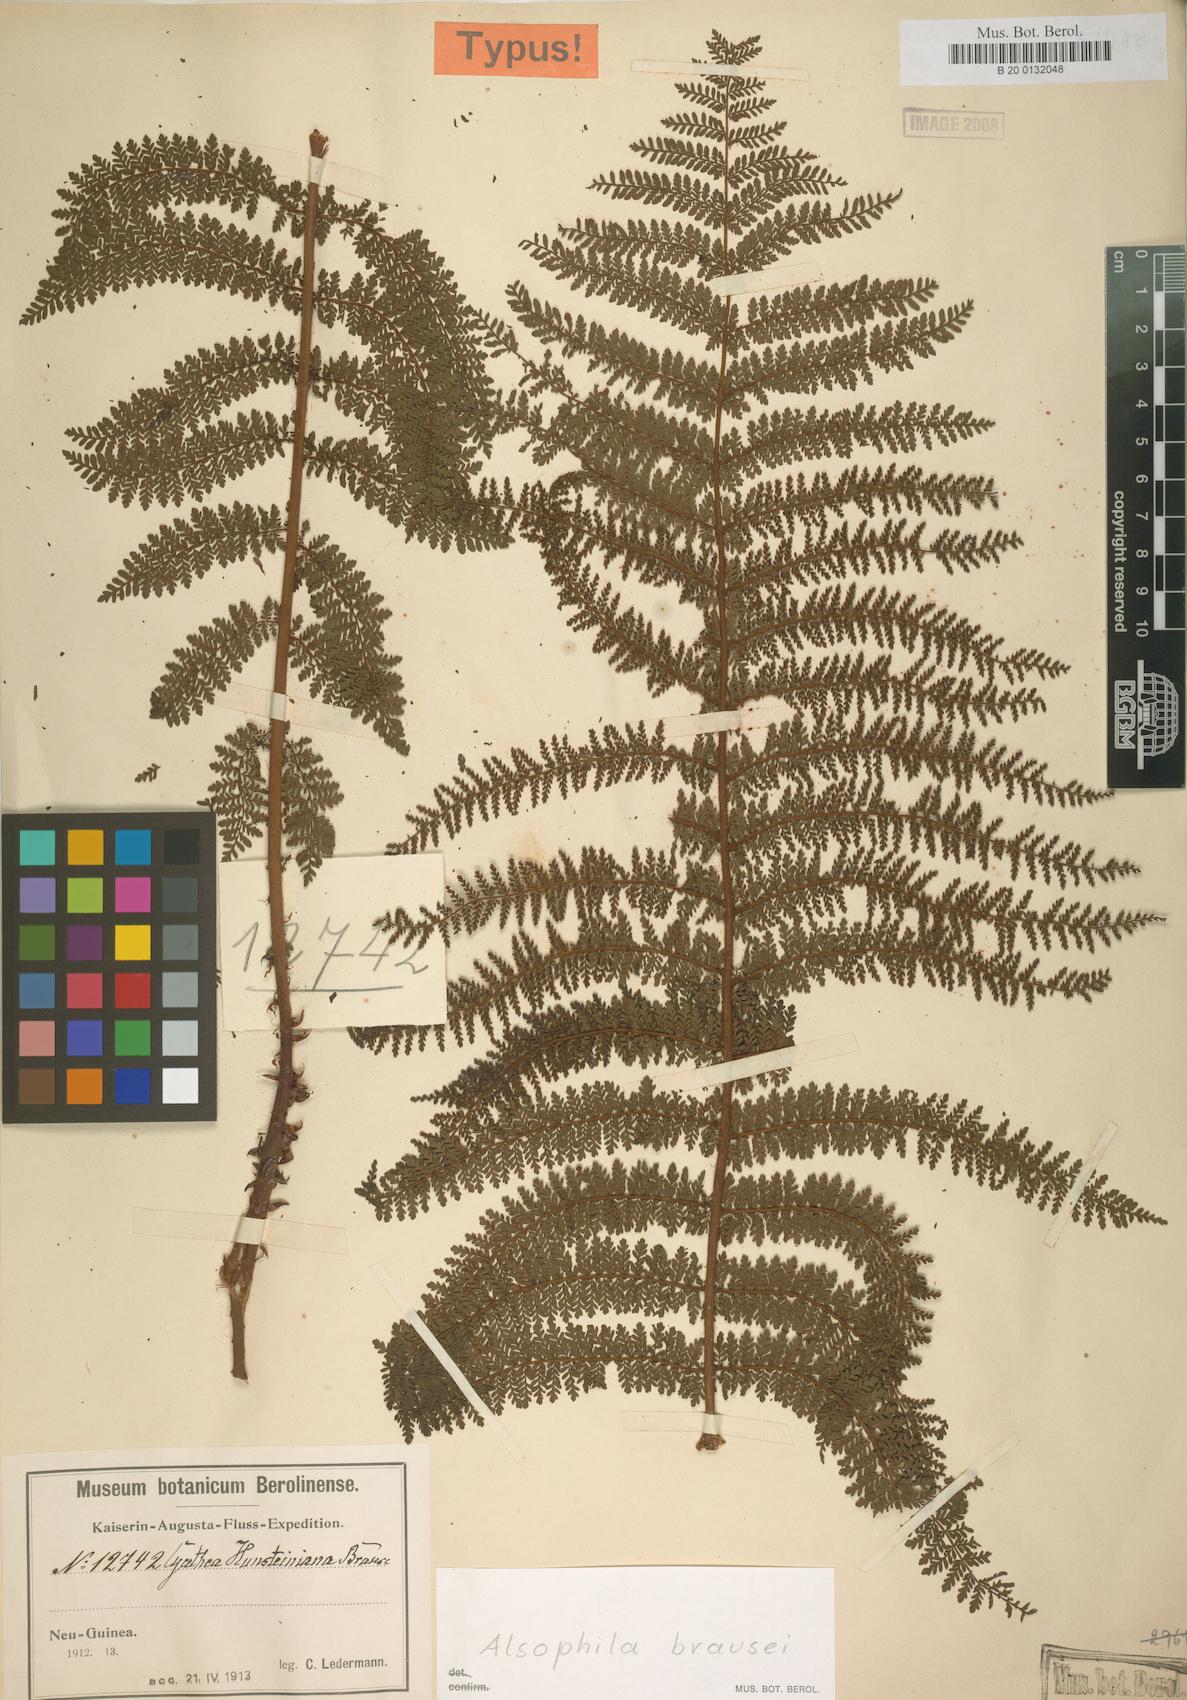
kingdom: Plantae
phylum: Tracheophyta
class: Polypodiopsida
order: Cyatheales
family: Cyatheaceae
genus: Alsophila
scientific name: Alsophila brausei
